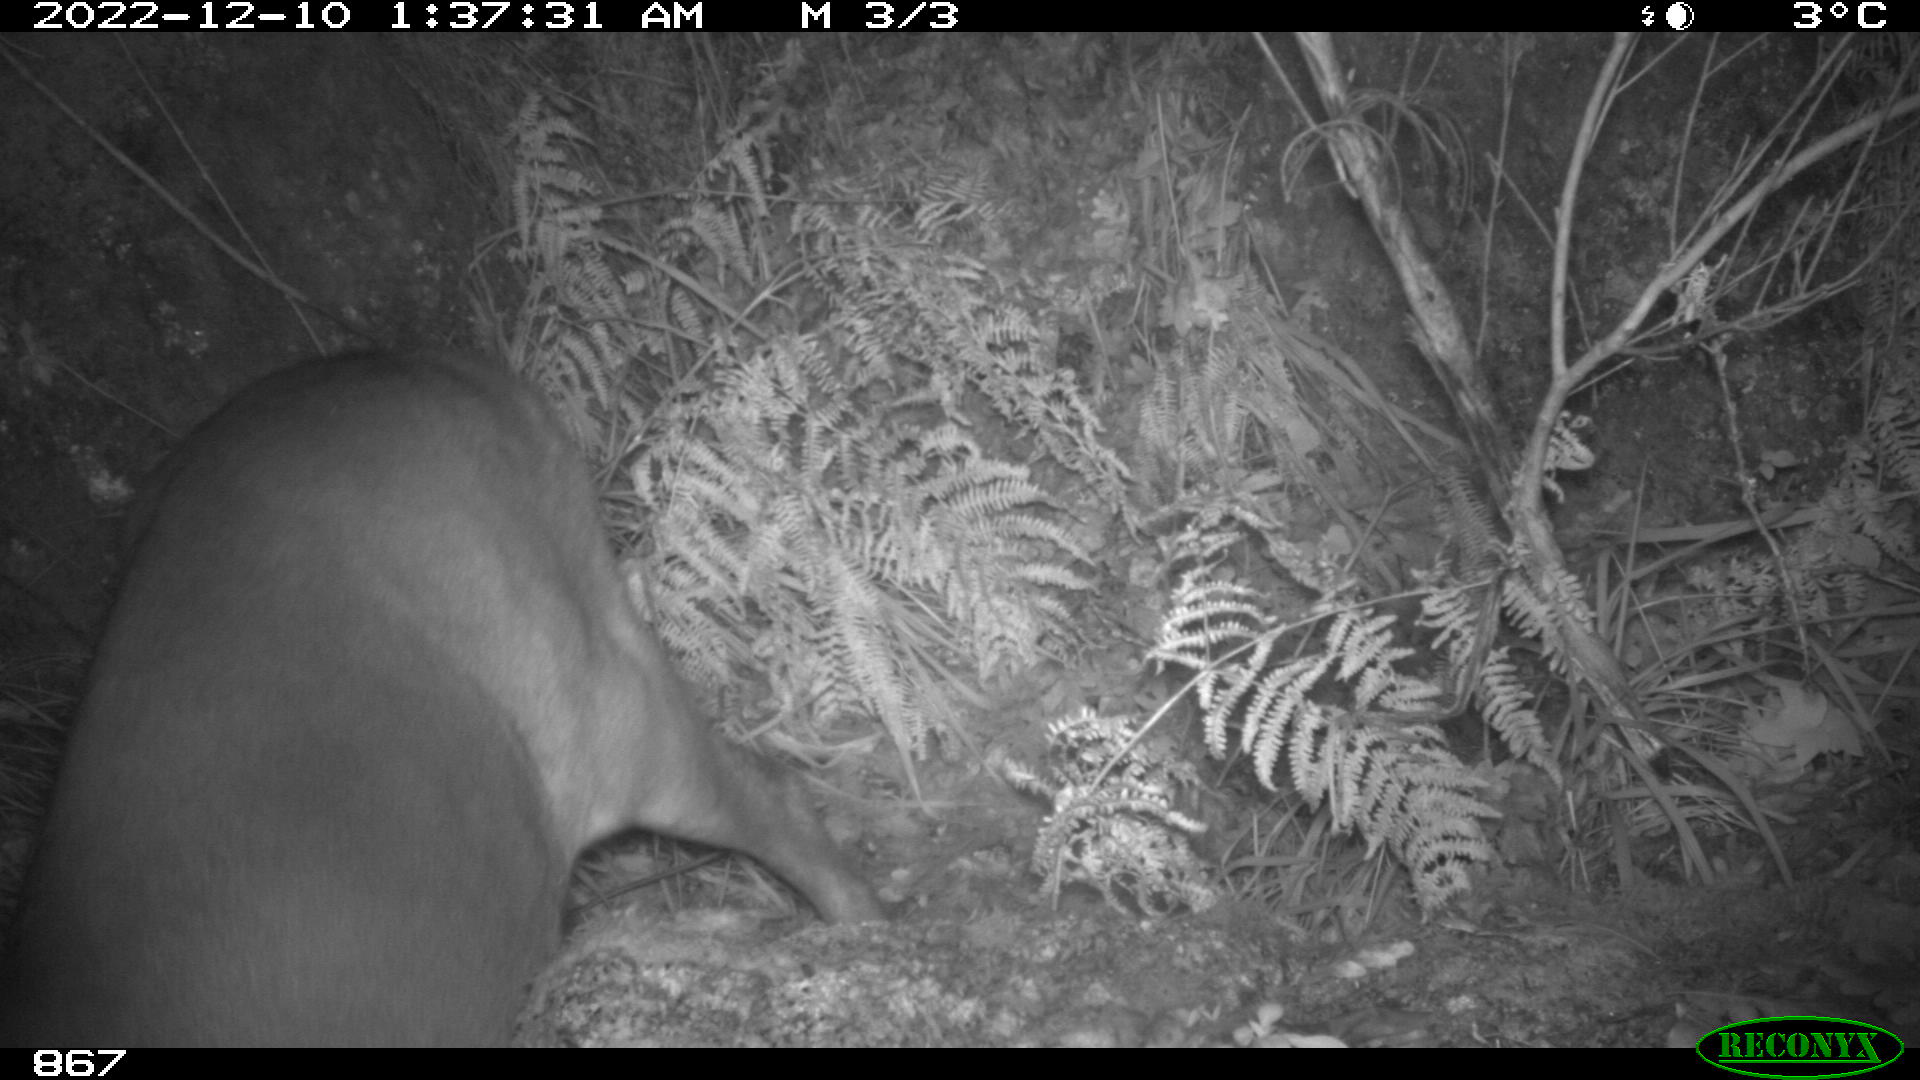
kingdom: Animalia
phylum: Chordata
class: Mammalia
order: Artiodactyla
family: Cervidae
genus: Capreolus
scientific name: Capreolus capreolus
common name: Western roe deer
